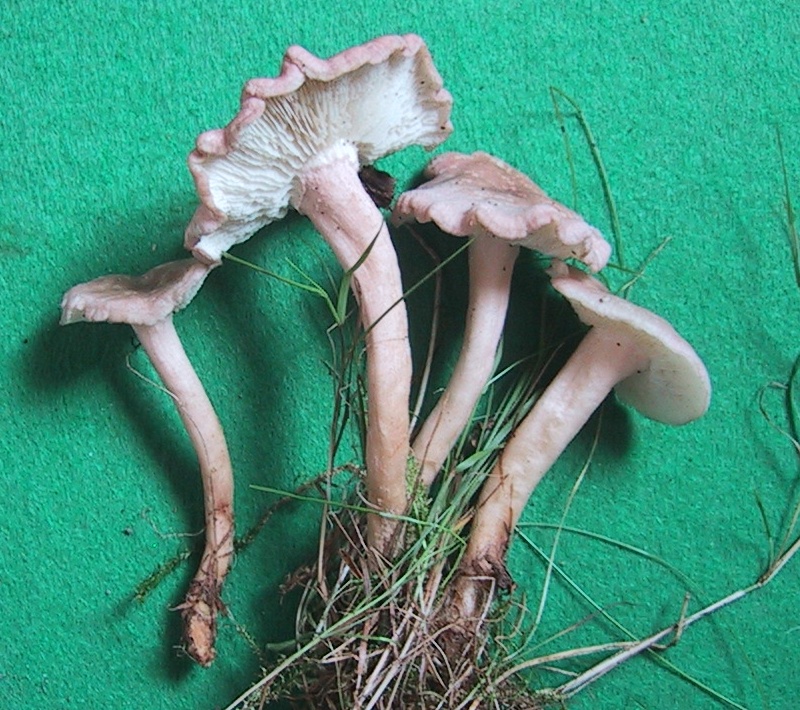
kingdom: Fungi
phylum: Basidiomycota
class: Agaricomycetes
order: Agaricales
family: Lyophyllaceae
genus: Calocybe
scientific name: Calocybe carnea
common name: rosa fagerhat
